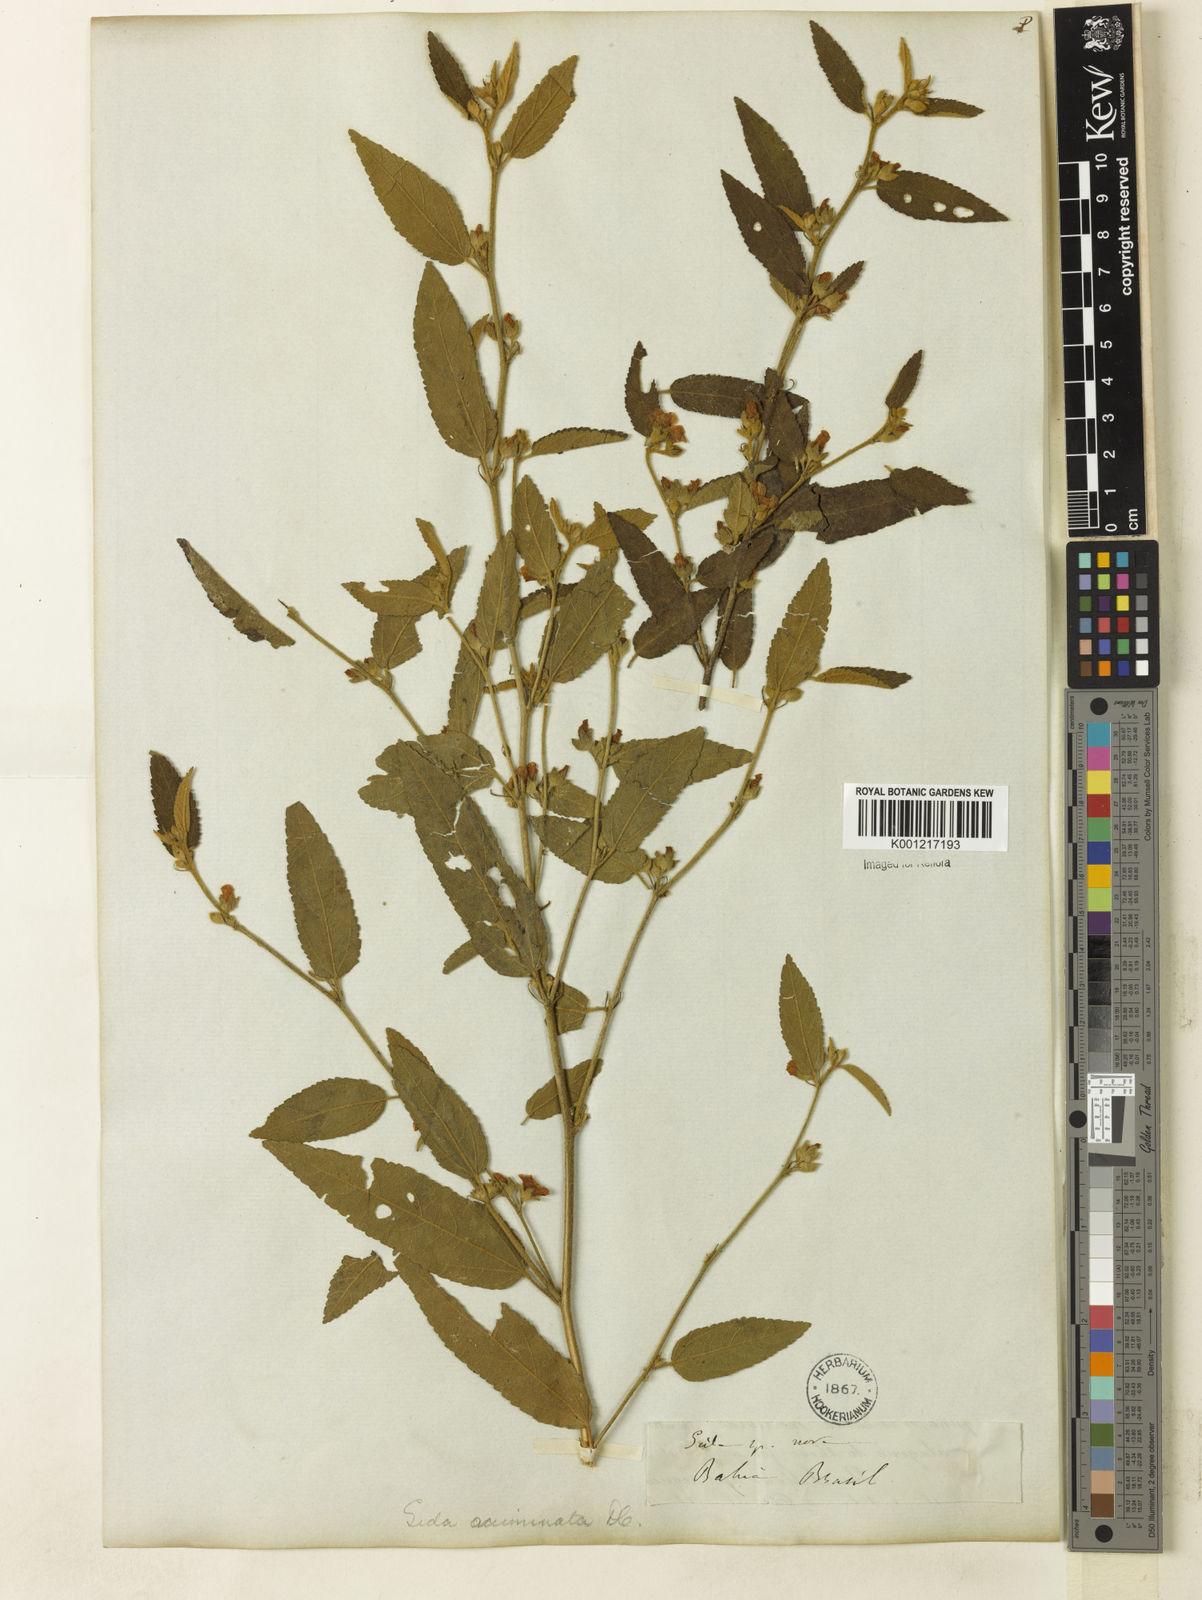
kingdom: Plantae
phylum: Tracheophyta
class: Magnoliopsida
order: Malvales
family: Malvaceae
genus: Sidastrum
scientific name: Sidastrum multiflorum
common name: Manyflower sandmallow
